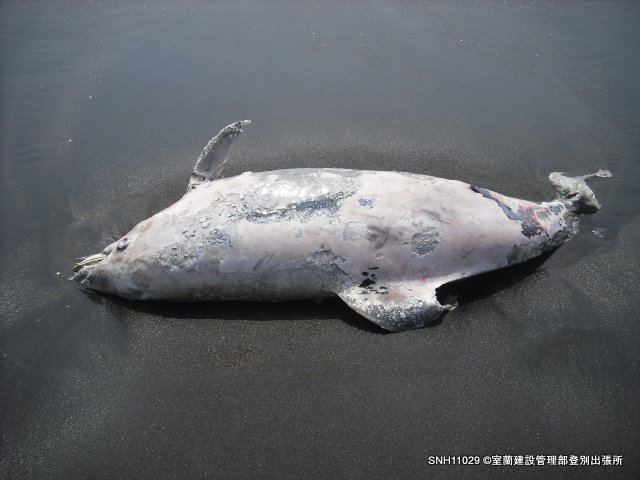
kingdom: Animalia
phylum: Chordata
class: Mammalia
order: Cetacea
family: Delphinidae
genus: Lagenorhynchus
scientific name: Lagenorhynchus obliquidens
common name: Pacific white-sided dolphin
